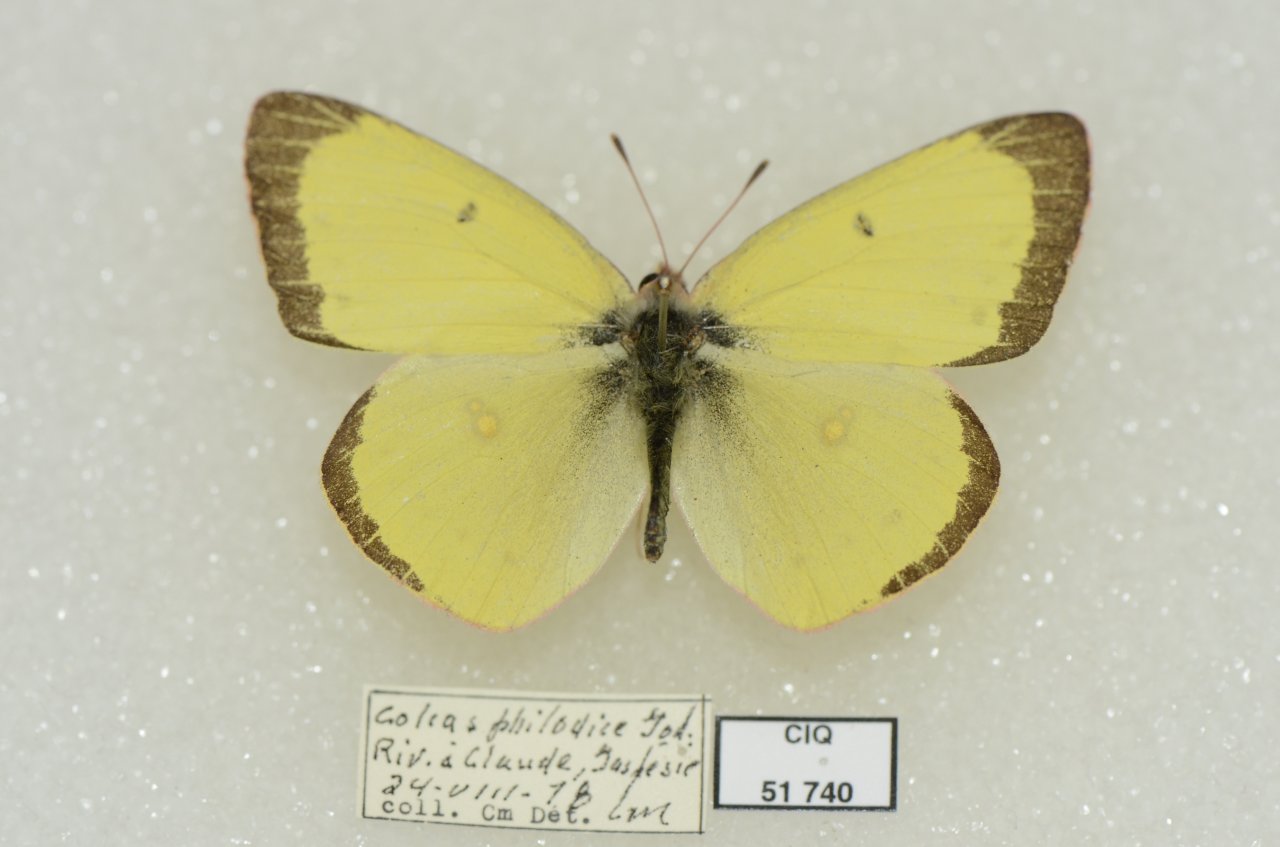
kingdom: Animalia
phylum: Arthropoda
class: Insecta
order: Lepidoptera
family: Pieridae
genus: Colias
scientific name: Colias philodice
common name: Clouded Sulphur
